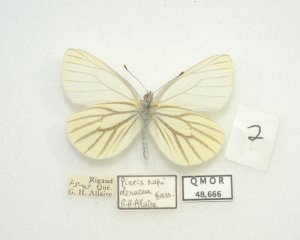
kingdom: Animalia
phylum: Arthropoda
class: Insecta
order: Lepidoptera
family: Pieridae
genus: Pieris
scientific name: Pieris oleracea
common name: Mustard White
